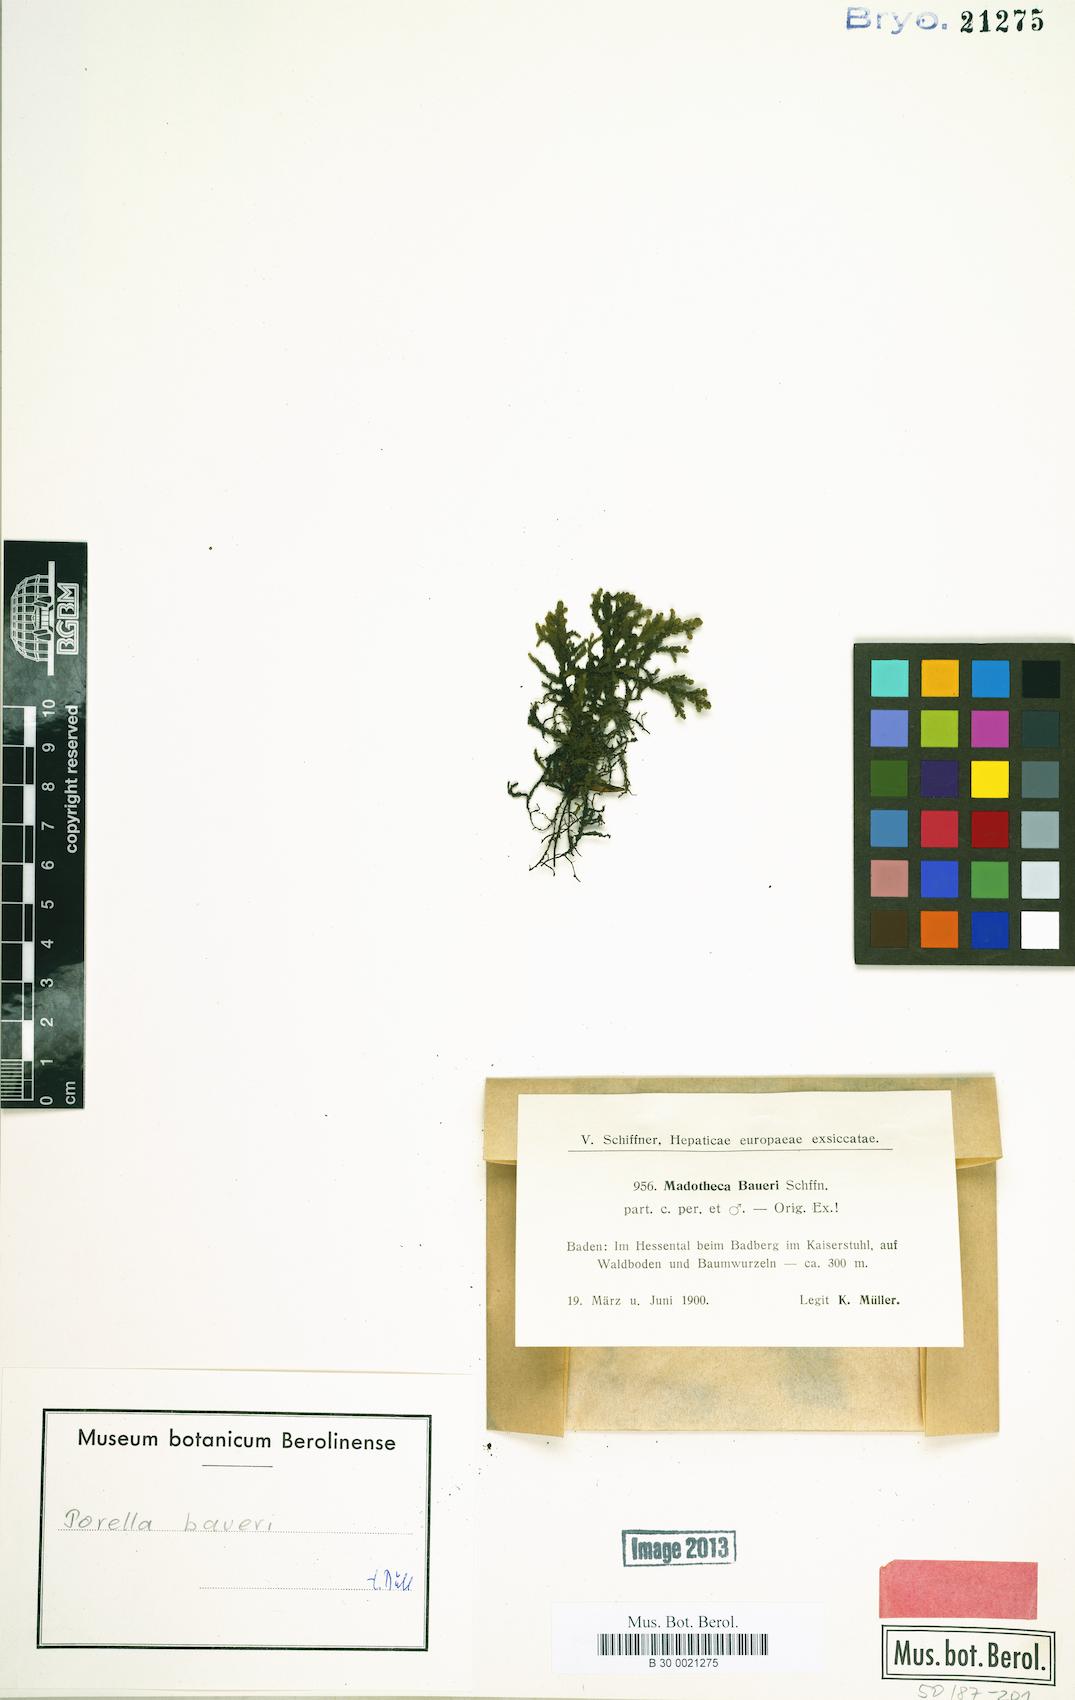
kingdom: Plantae
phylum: Marchantiophyta
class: Jungermanniopsida
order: Porellales
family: Porellaceae
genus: Porella
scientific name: Porella baueri
